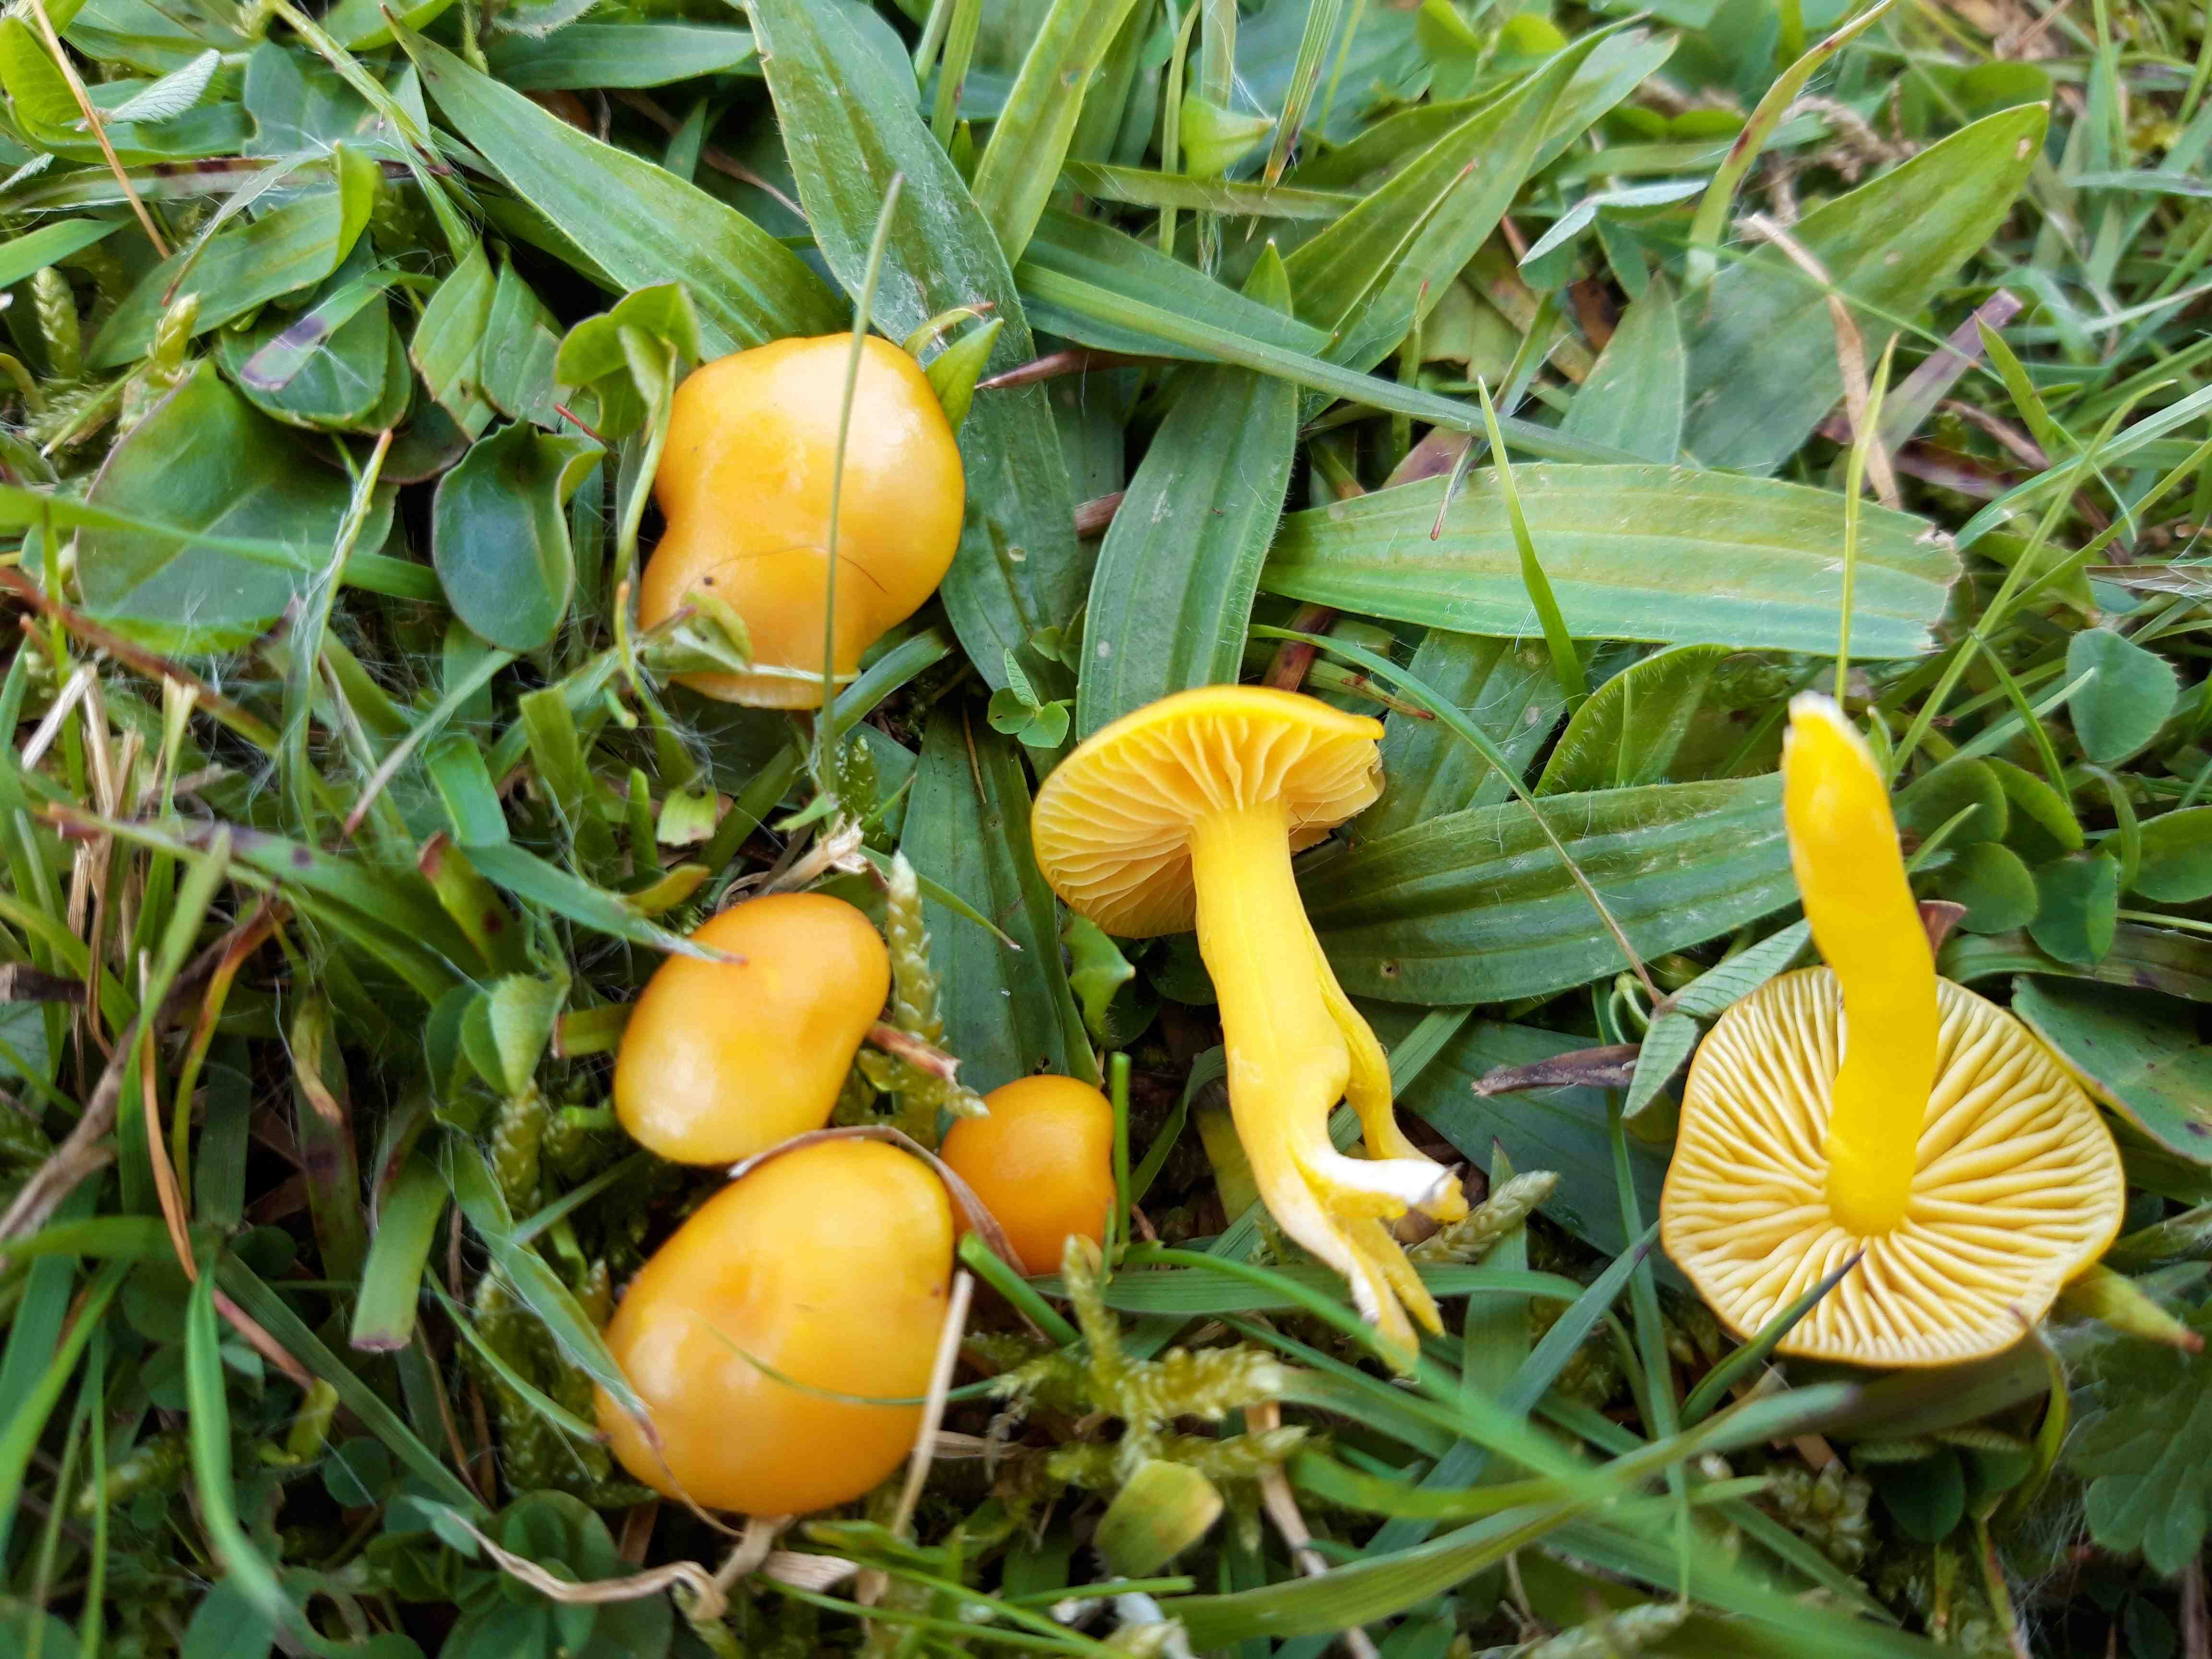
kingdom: Fungi
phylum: Basidiomycota
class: Agaricomycetes
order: Agaricales
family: Hygrophoraceae
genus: Hygrocybe
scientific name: Hygrocybe ceracea
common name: voksgul vokshat
